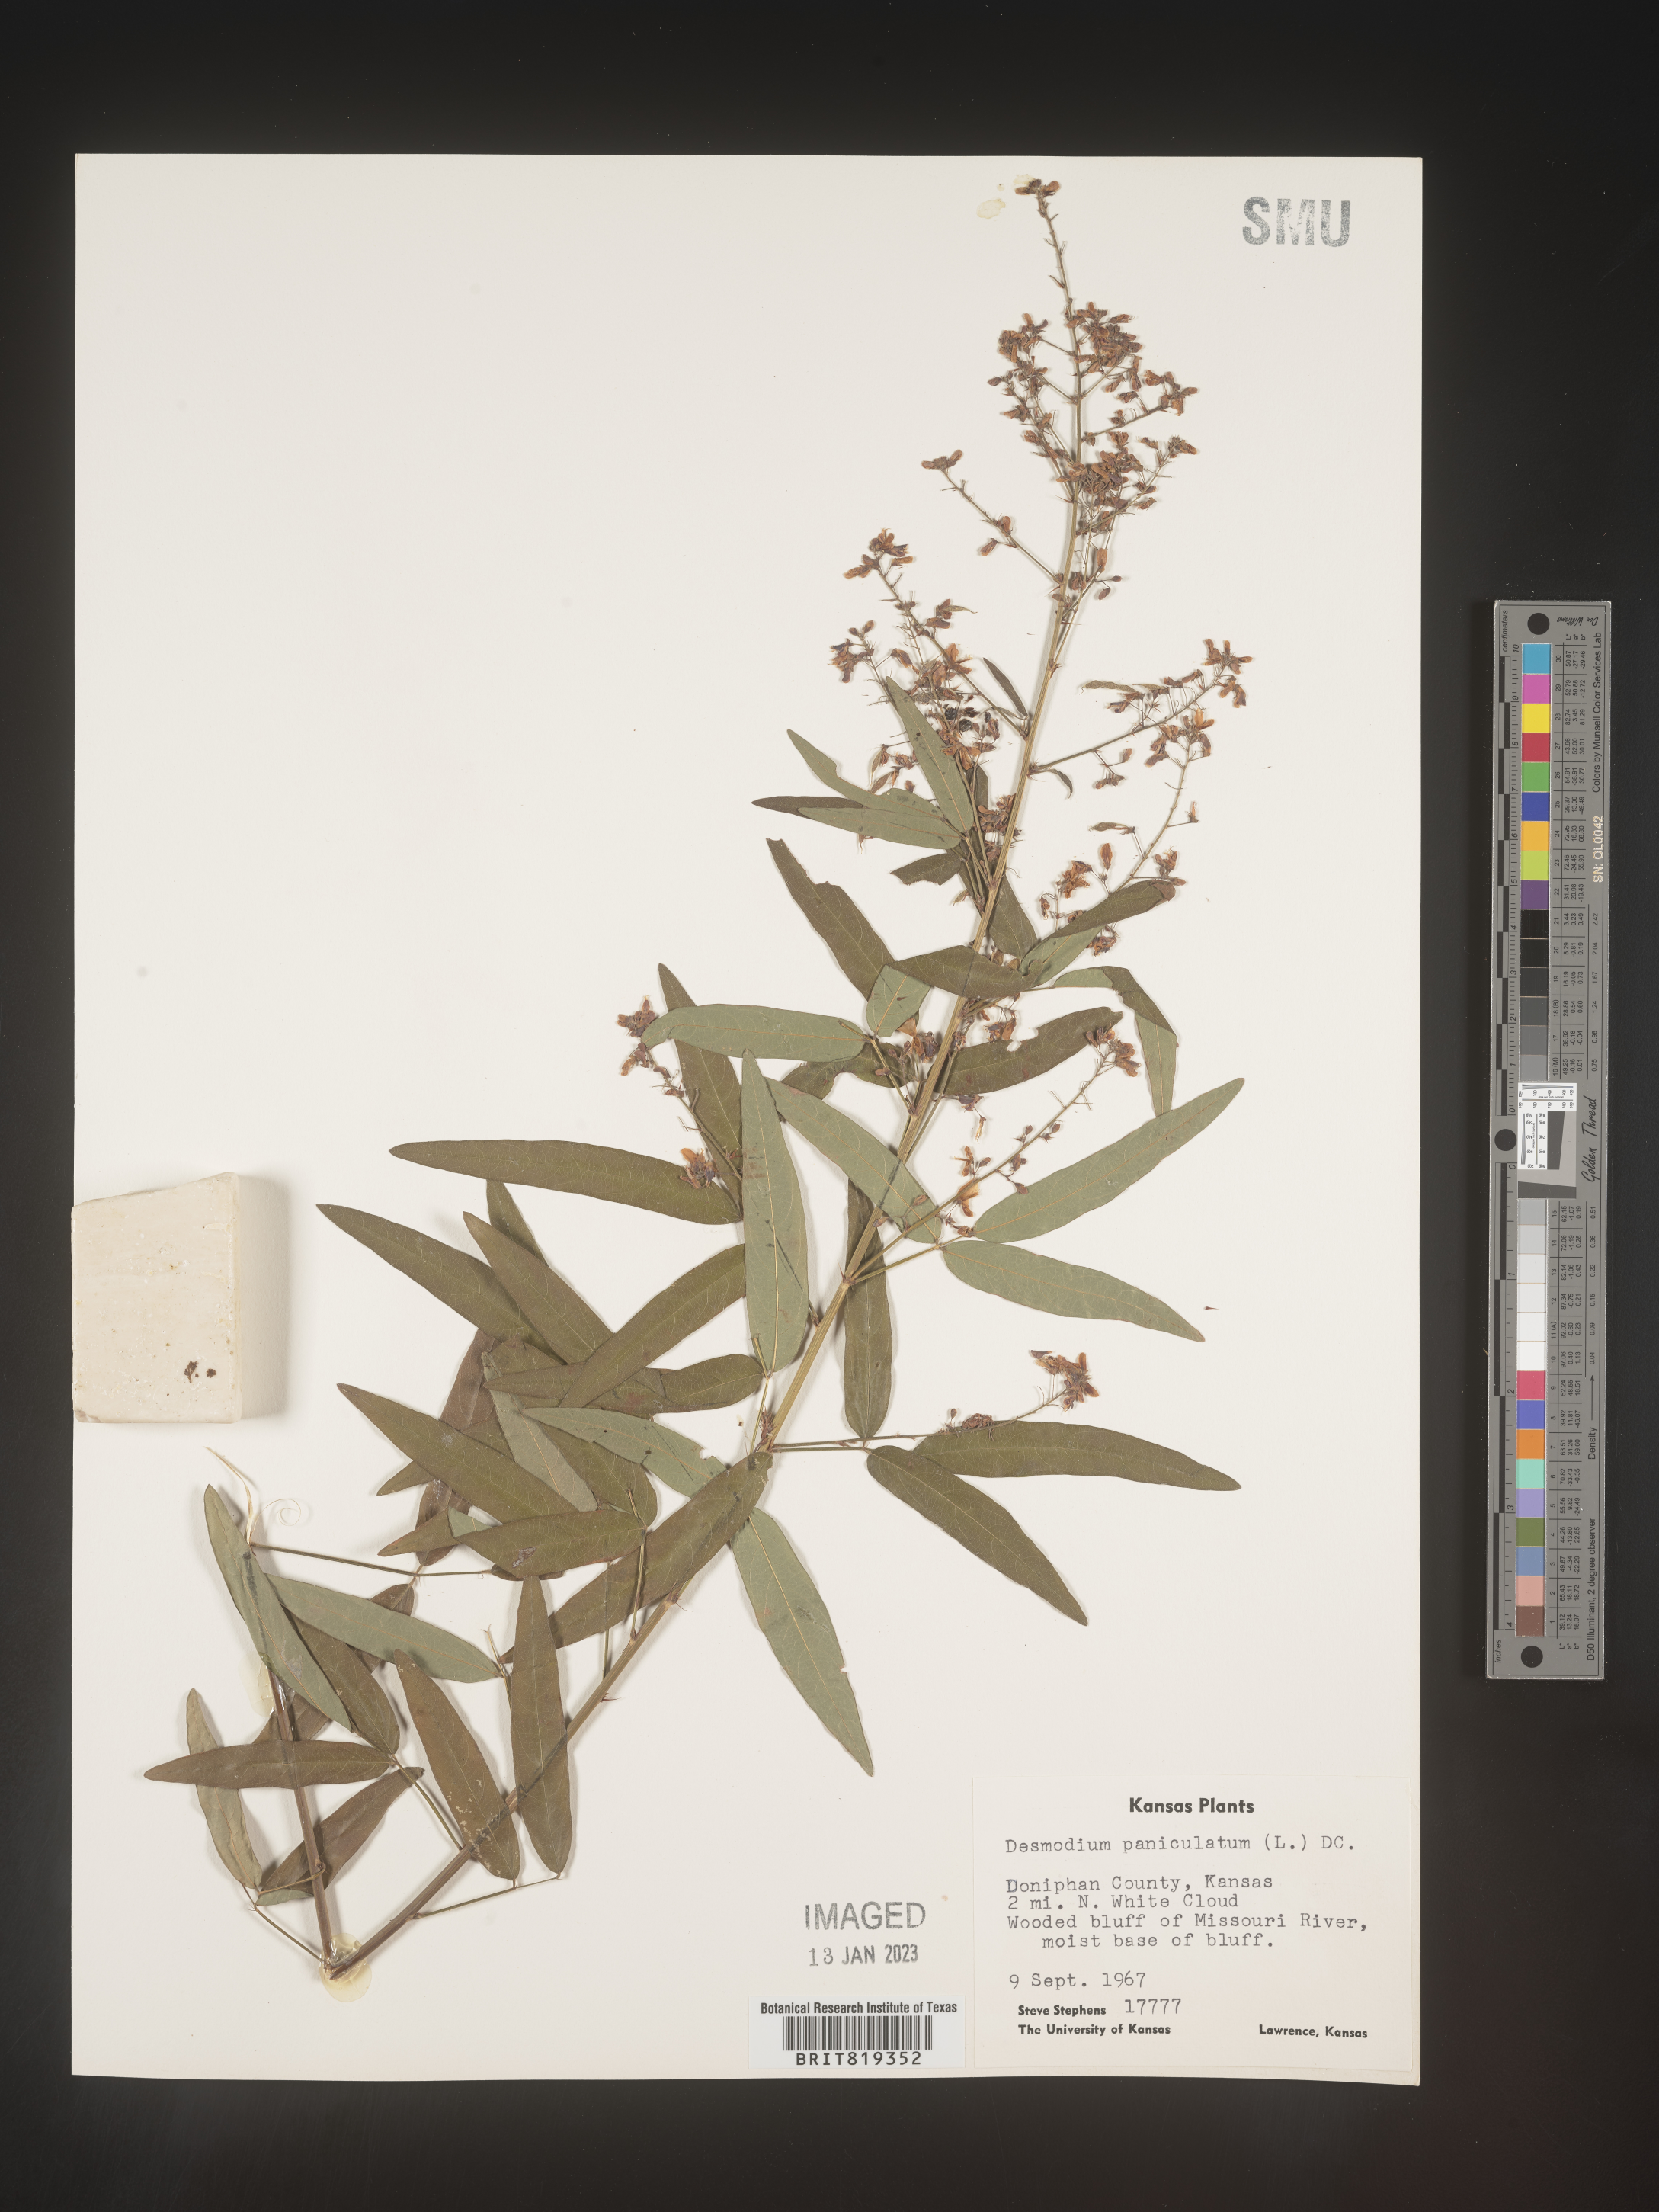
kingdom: Plantae
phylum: Tracheophyta
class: Magnoliopsida
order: Fabales
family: Fabaceae
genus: Desmodium
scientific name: Desmodium paniculatum
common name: Panicled tick-clover
